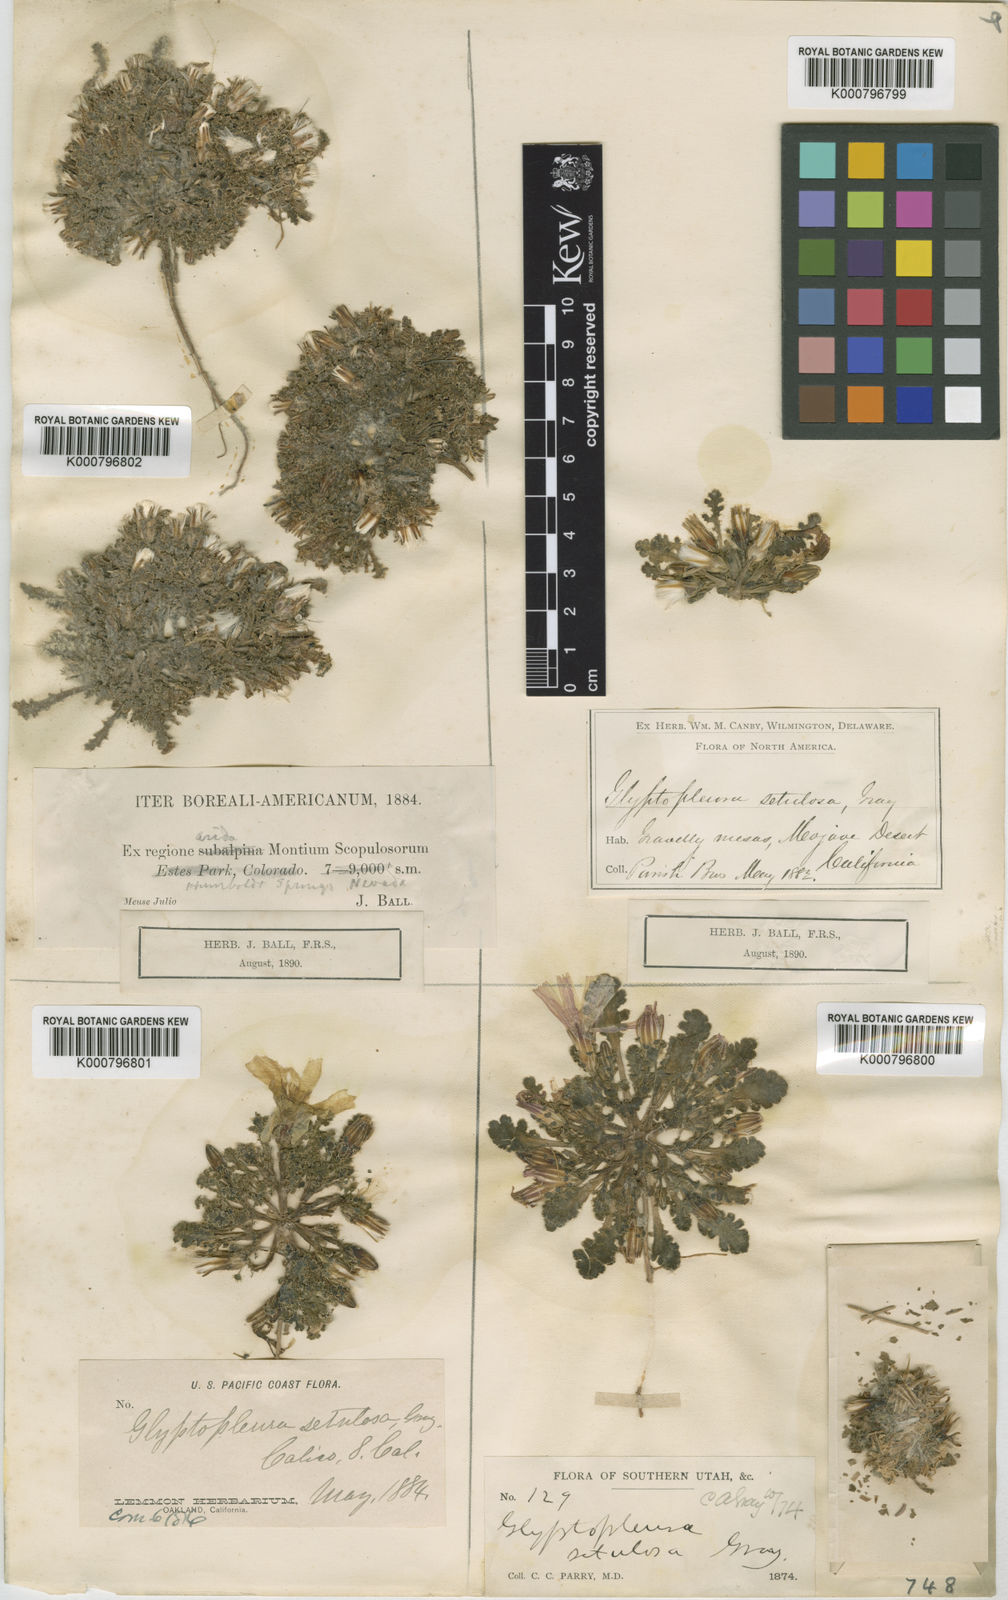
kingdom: Plantae
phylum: Tracheophyta
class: Magnoliopsida
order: Asterales
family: Asteraceae
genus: Glyptopleura
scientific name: Glyptopleura setulosa
